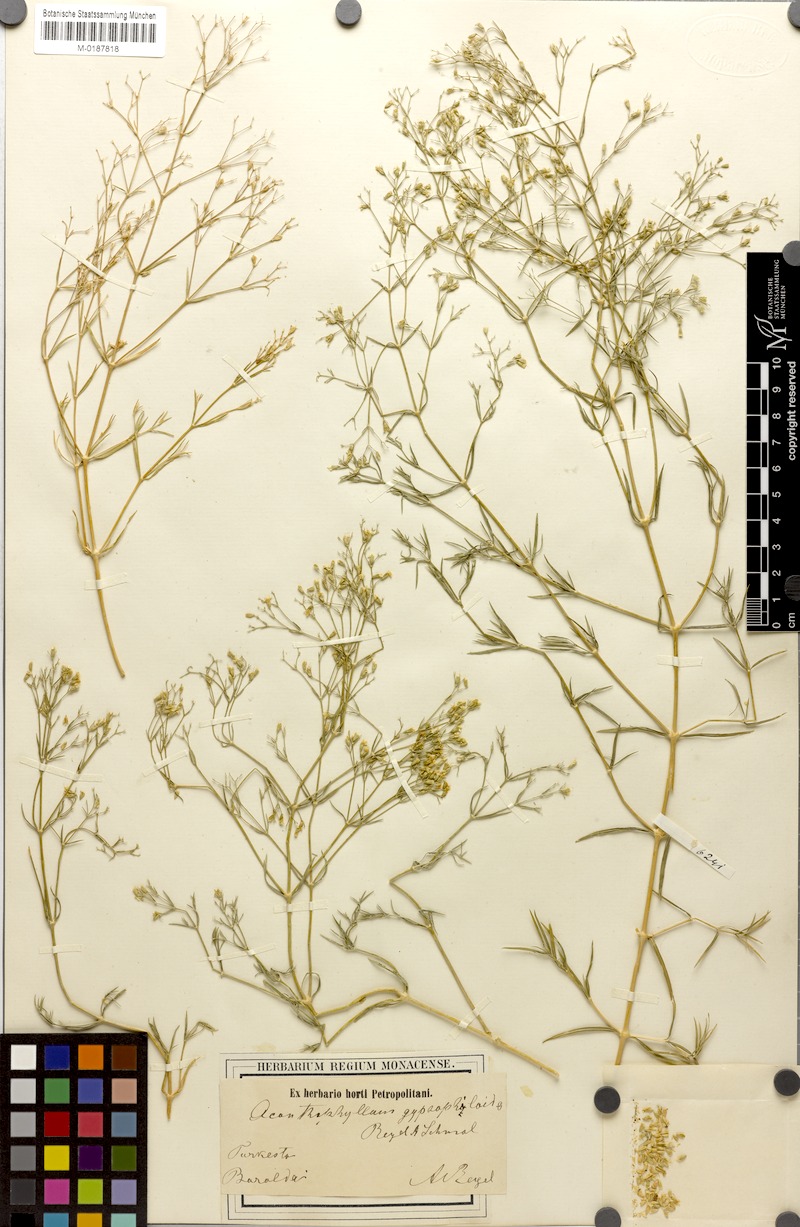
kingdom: Plantae
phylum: Tracheophyta
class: Magnoliopsida
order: Caryophyllales
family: Caryophyllaceae
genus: Acanthophyllum
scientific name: Acanthophyllum gypsophiloides
